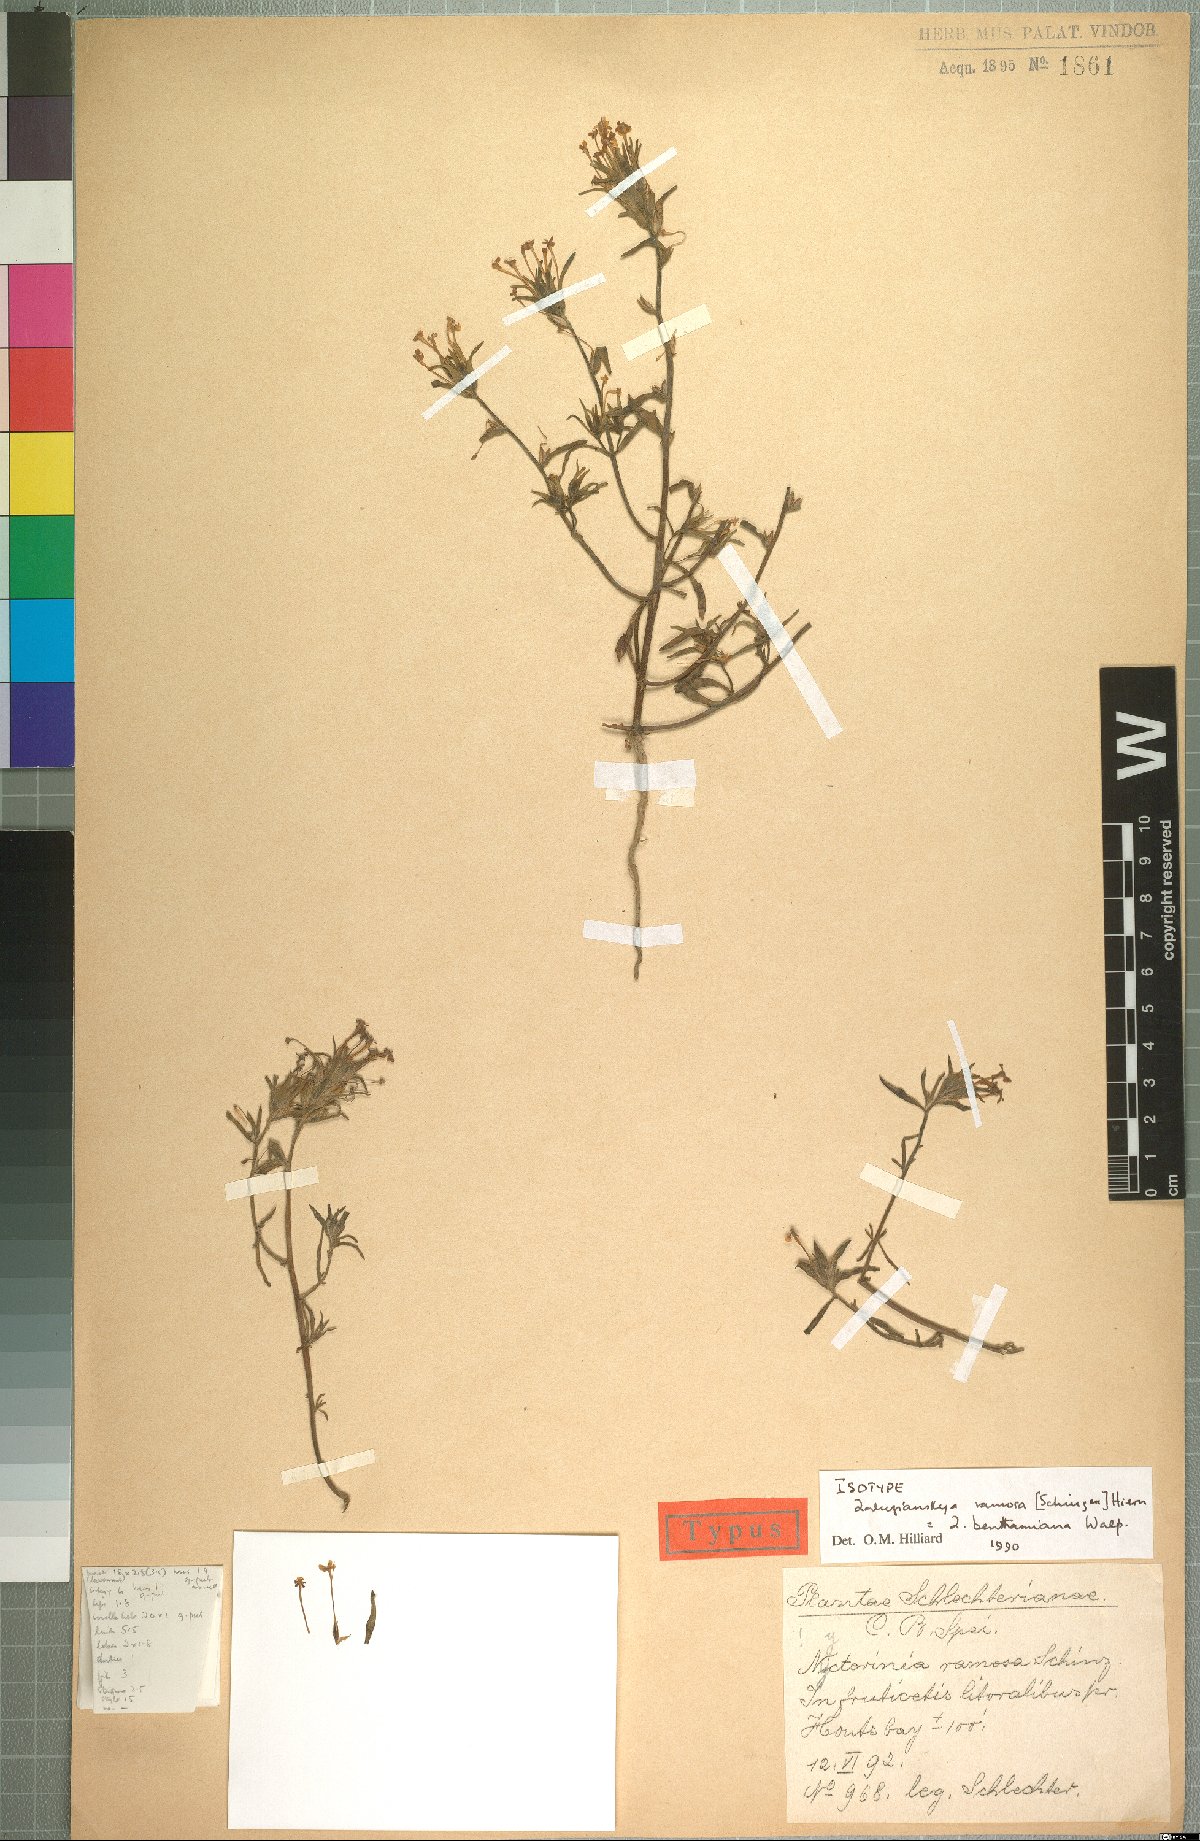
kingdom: Plantae
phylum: Tracheophyta
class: Magnoliopsida
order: Lamiales
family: Scrophulariaceae
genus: Zaluzianskya
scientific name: Zaluzianskya benthamiana
